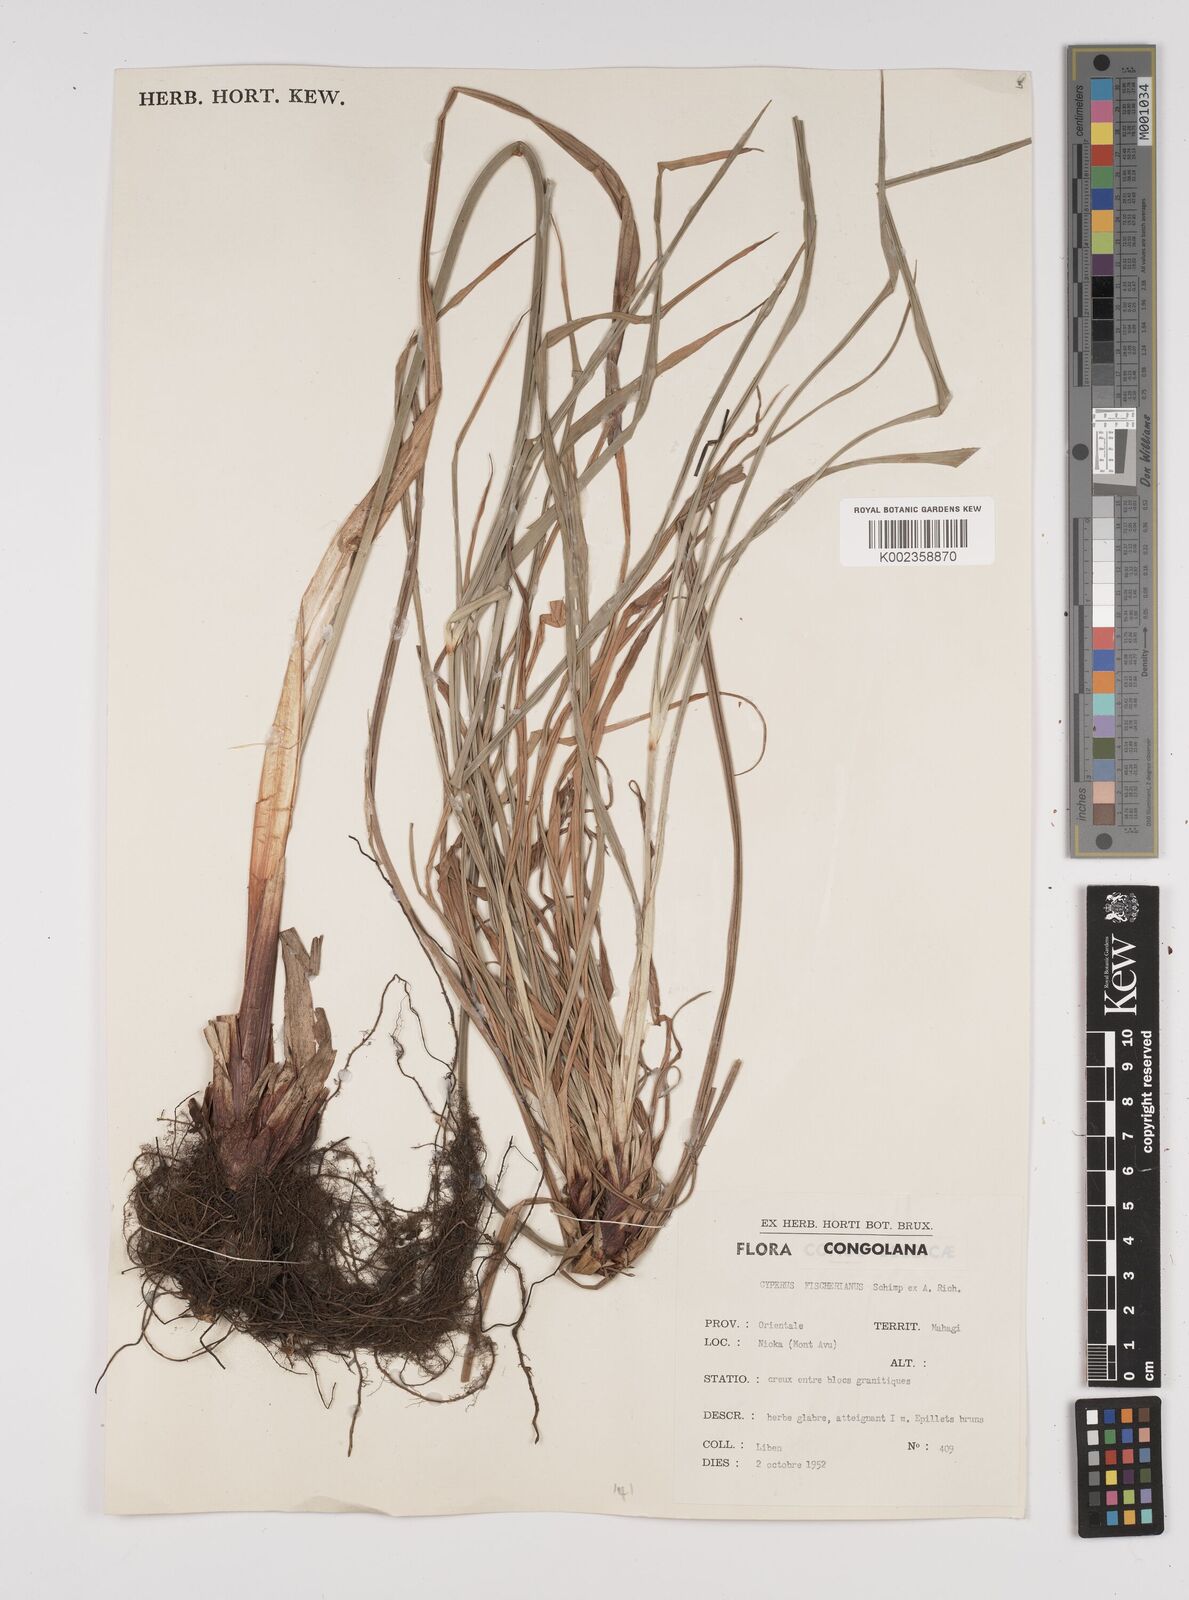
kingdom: Plantae
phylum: Tracheophyta
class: Liliopsida
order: Poales
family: Cyperaceae
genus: Cyperus
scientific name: Cyperus fischerianus
